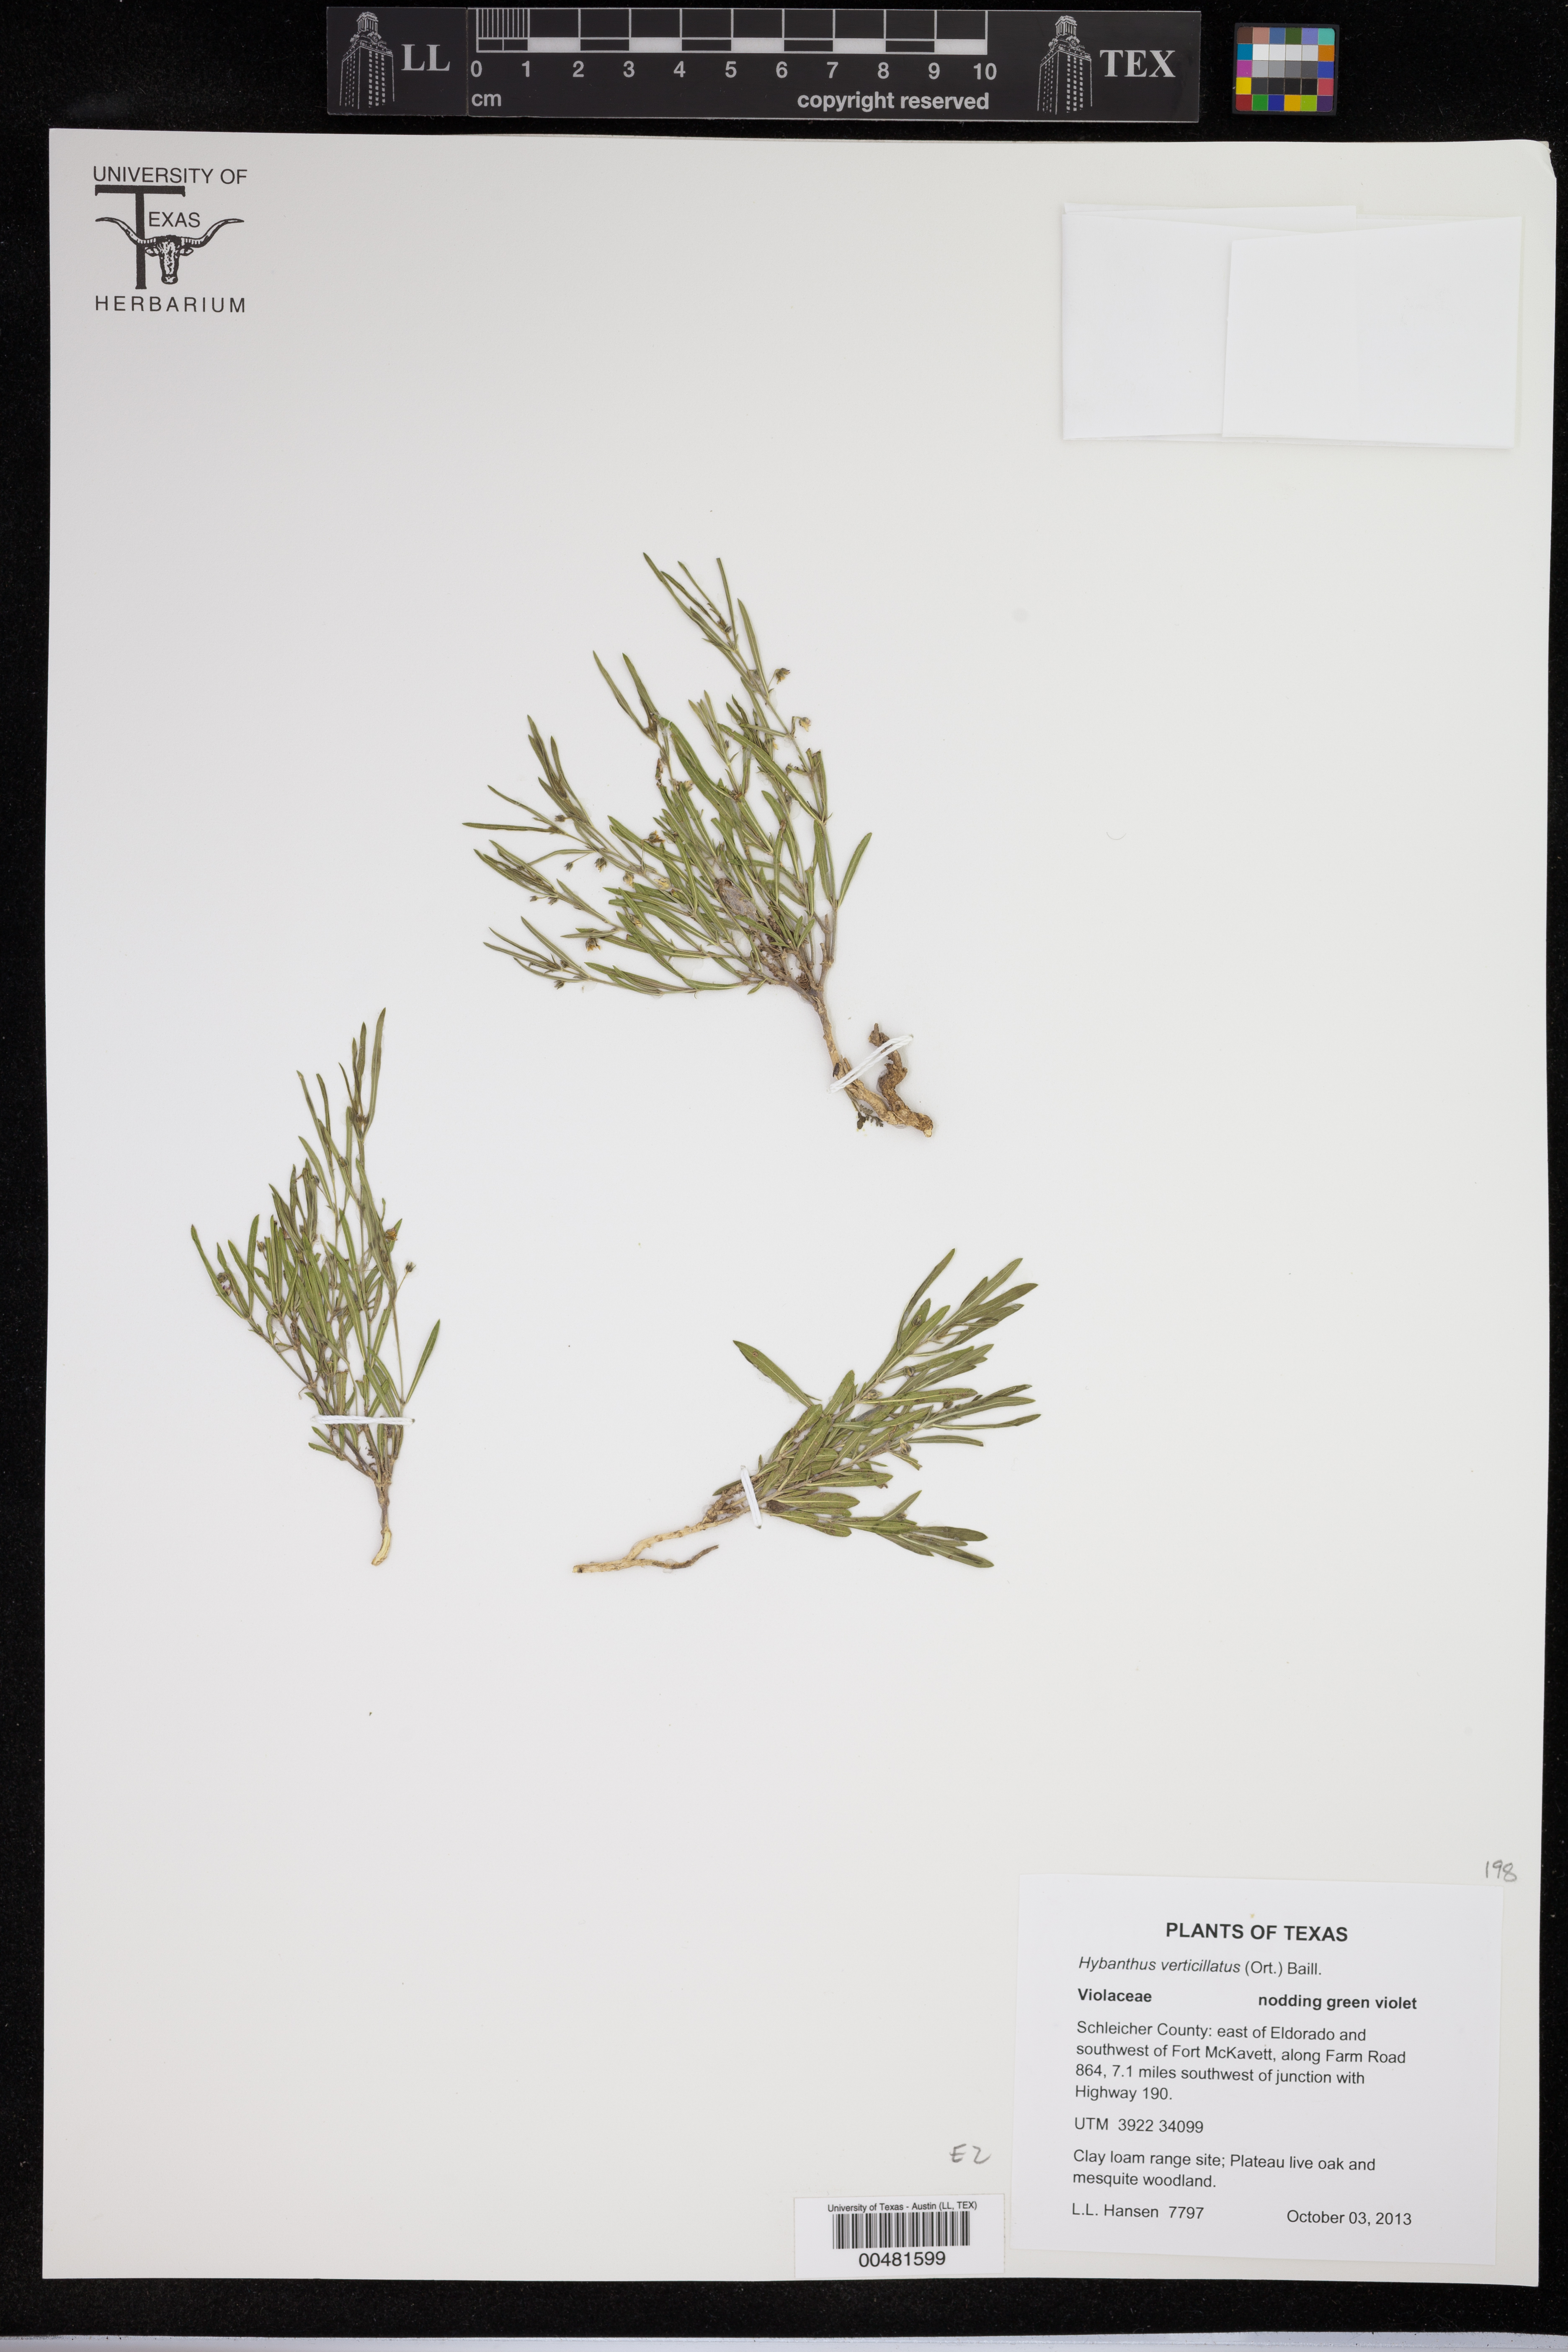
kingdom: Plantae
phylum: Tracheophyta
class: Magnoliopsida
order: Malpighiales
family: Violaceae
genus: Pombalia
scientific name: Pombalia verticillata
